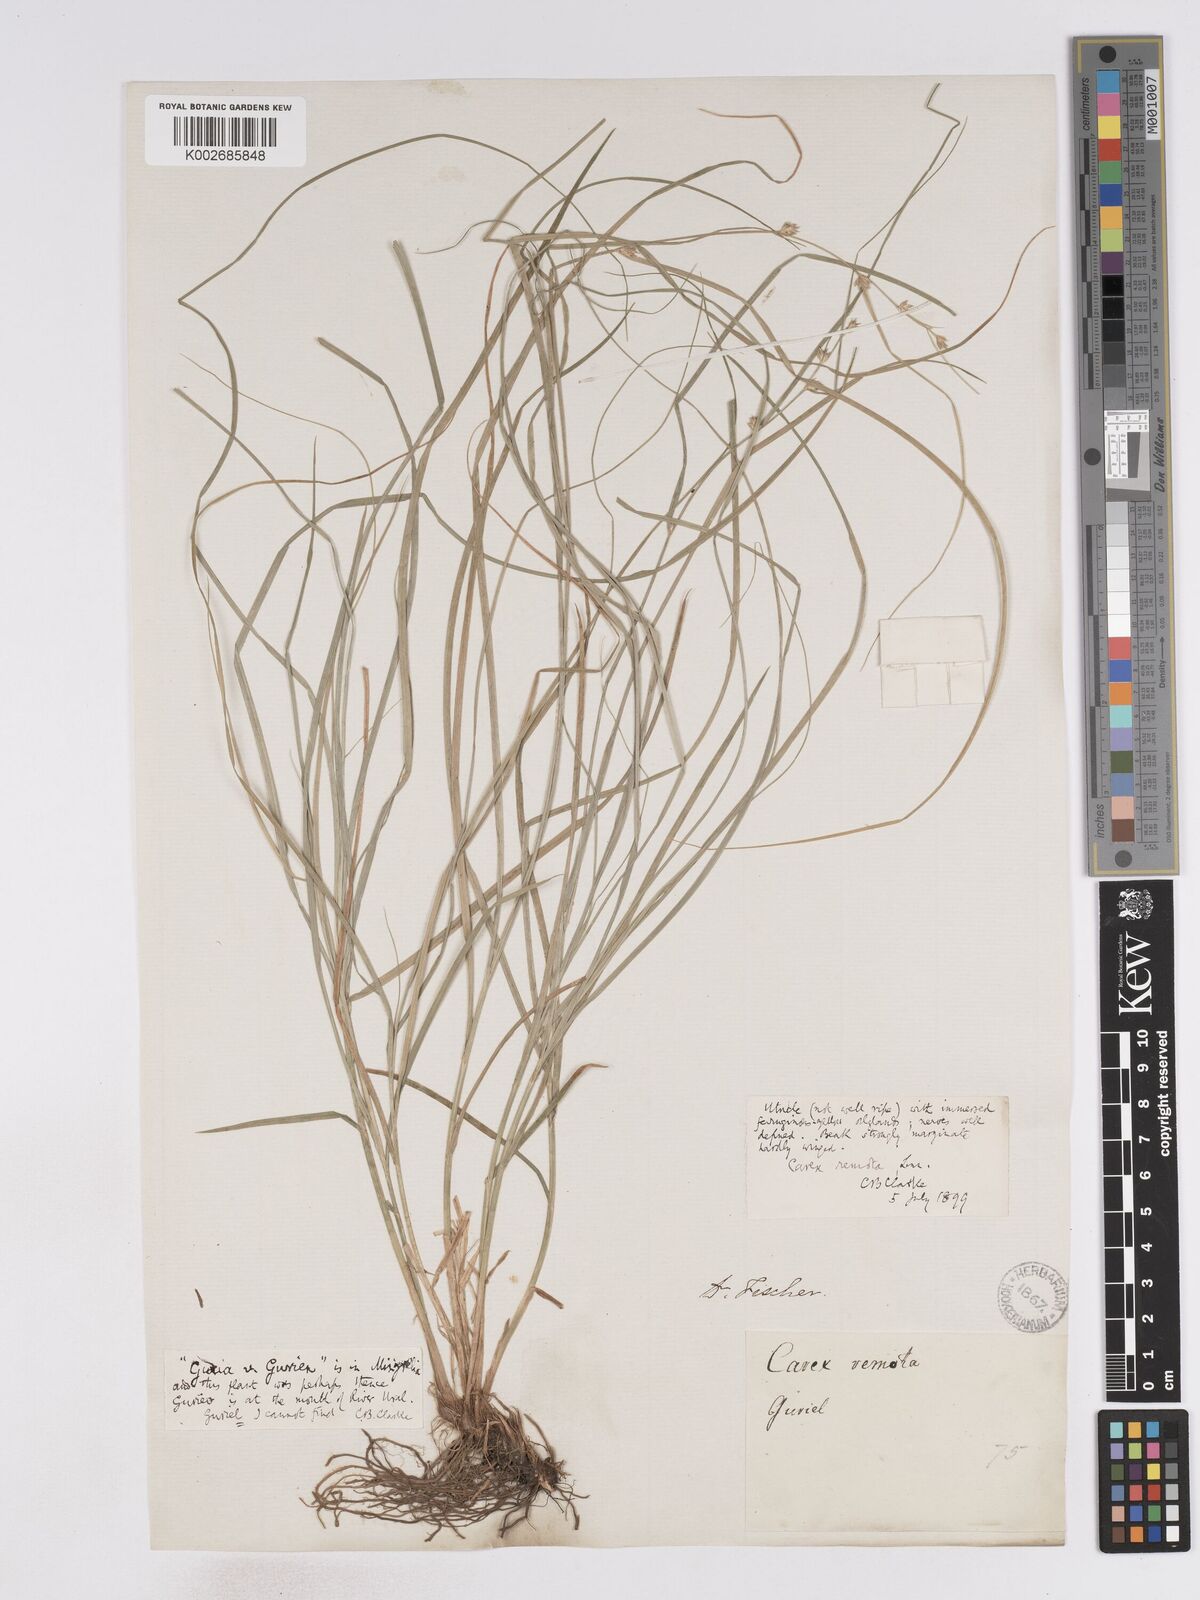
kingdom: Plantae
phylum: Tracheophyta
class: Liliopsida
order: Poales
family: Cyperaceae
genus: Carex
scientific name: Carex remotiuscula
